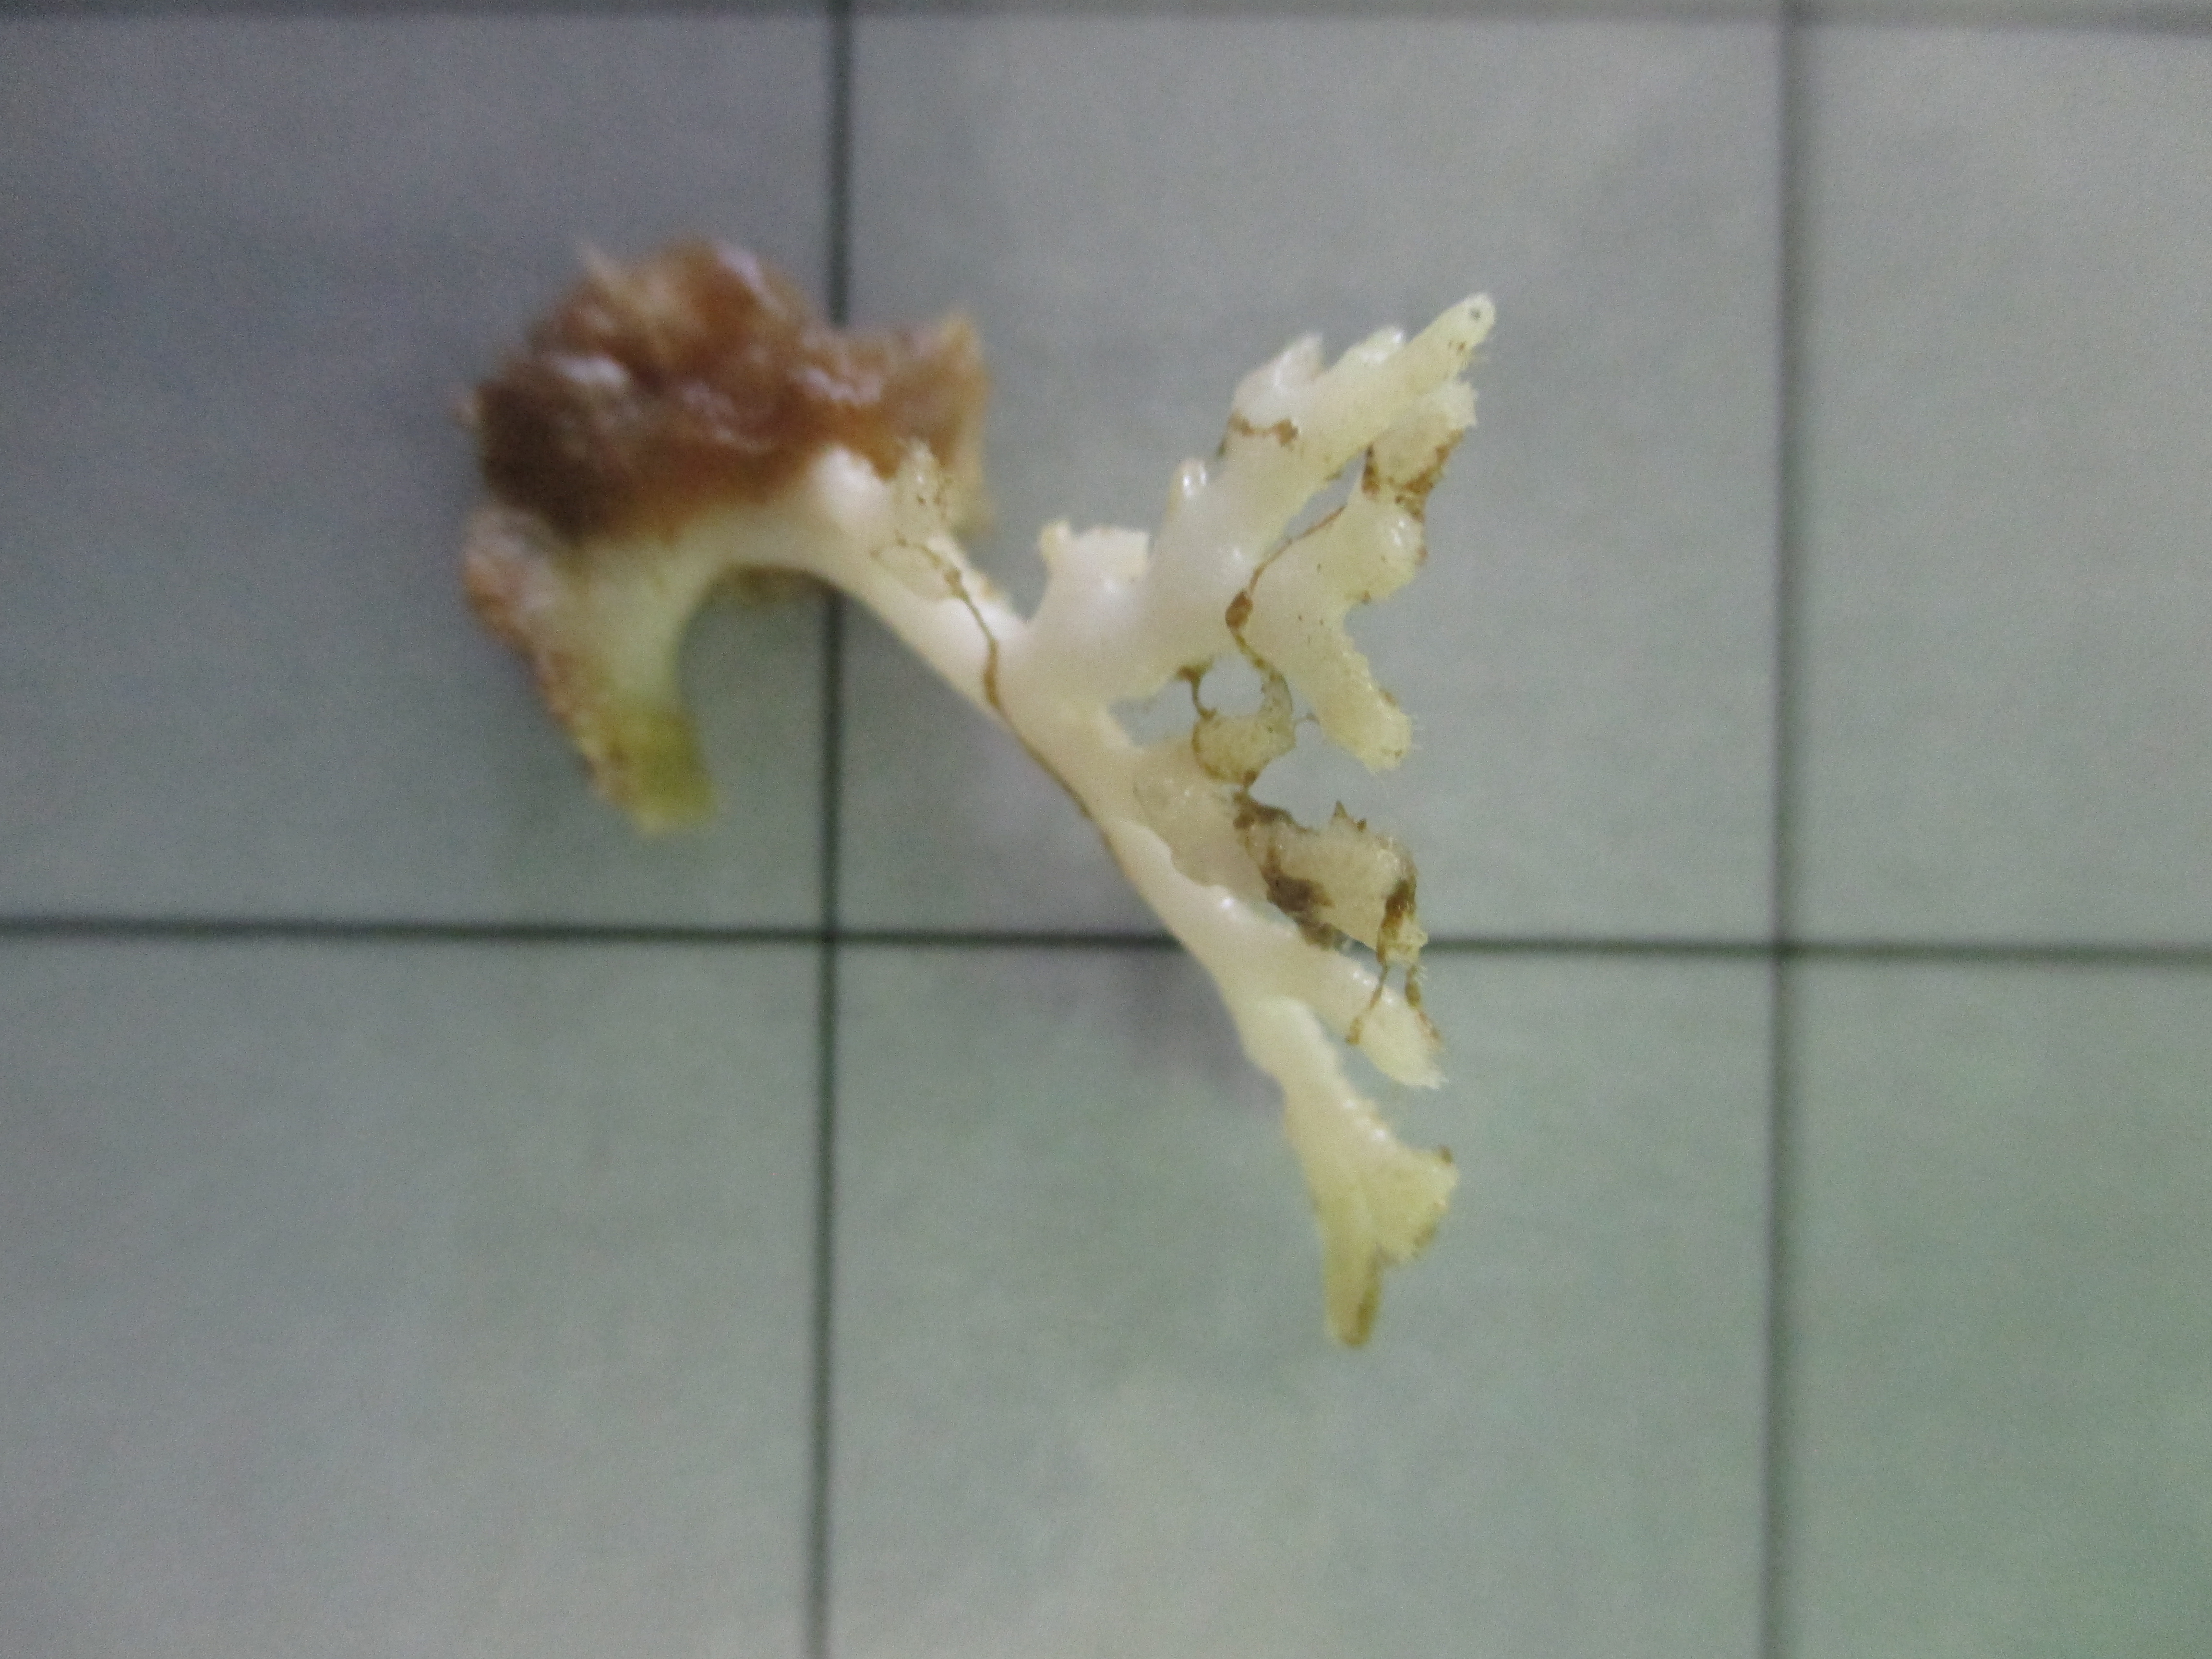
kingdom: Animalia
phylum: Bryozoa
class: Stenolaemata
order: Cyclostomatida
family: Horneridae
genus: Hornera
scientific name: Hornera erugata
